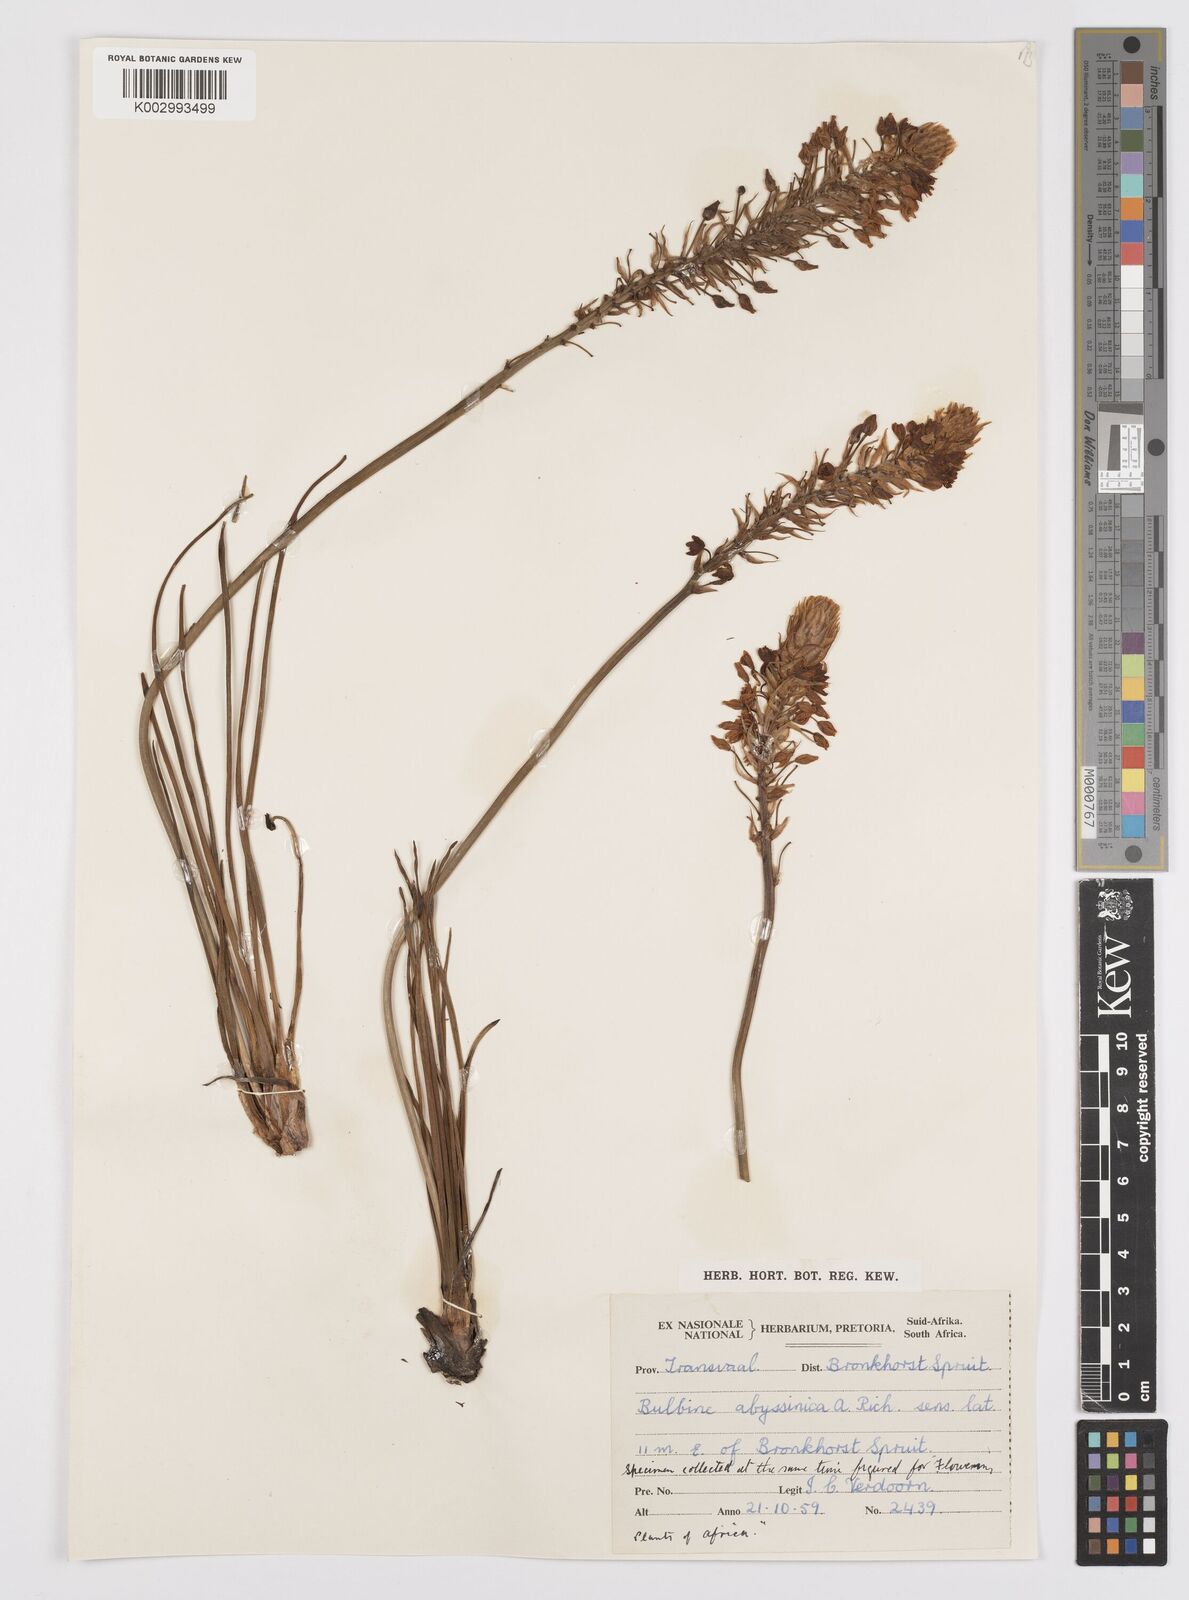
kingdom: Plantae
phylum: Tracheophyta
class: Liliopsida
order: Asparagales
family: Asphodelaceae
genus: Bulbine
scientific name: Bulbine abyssinica
